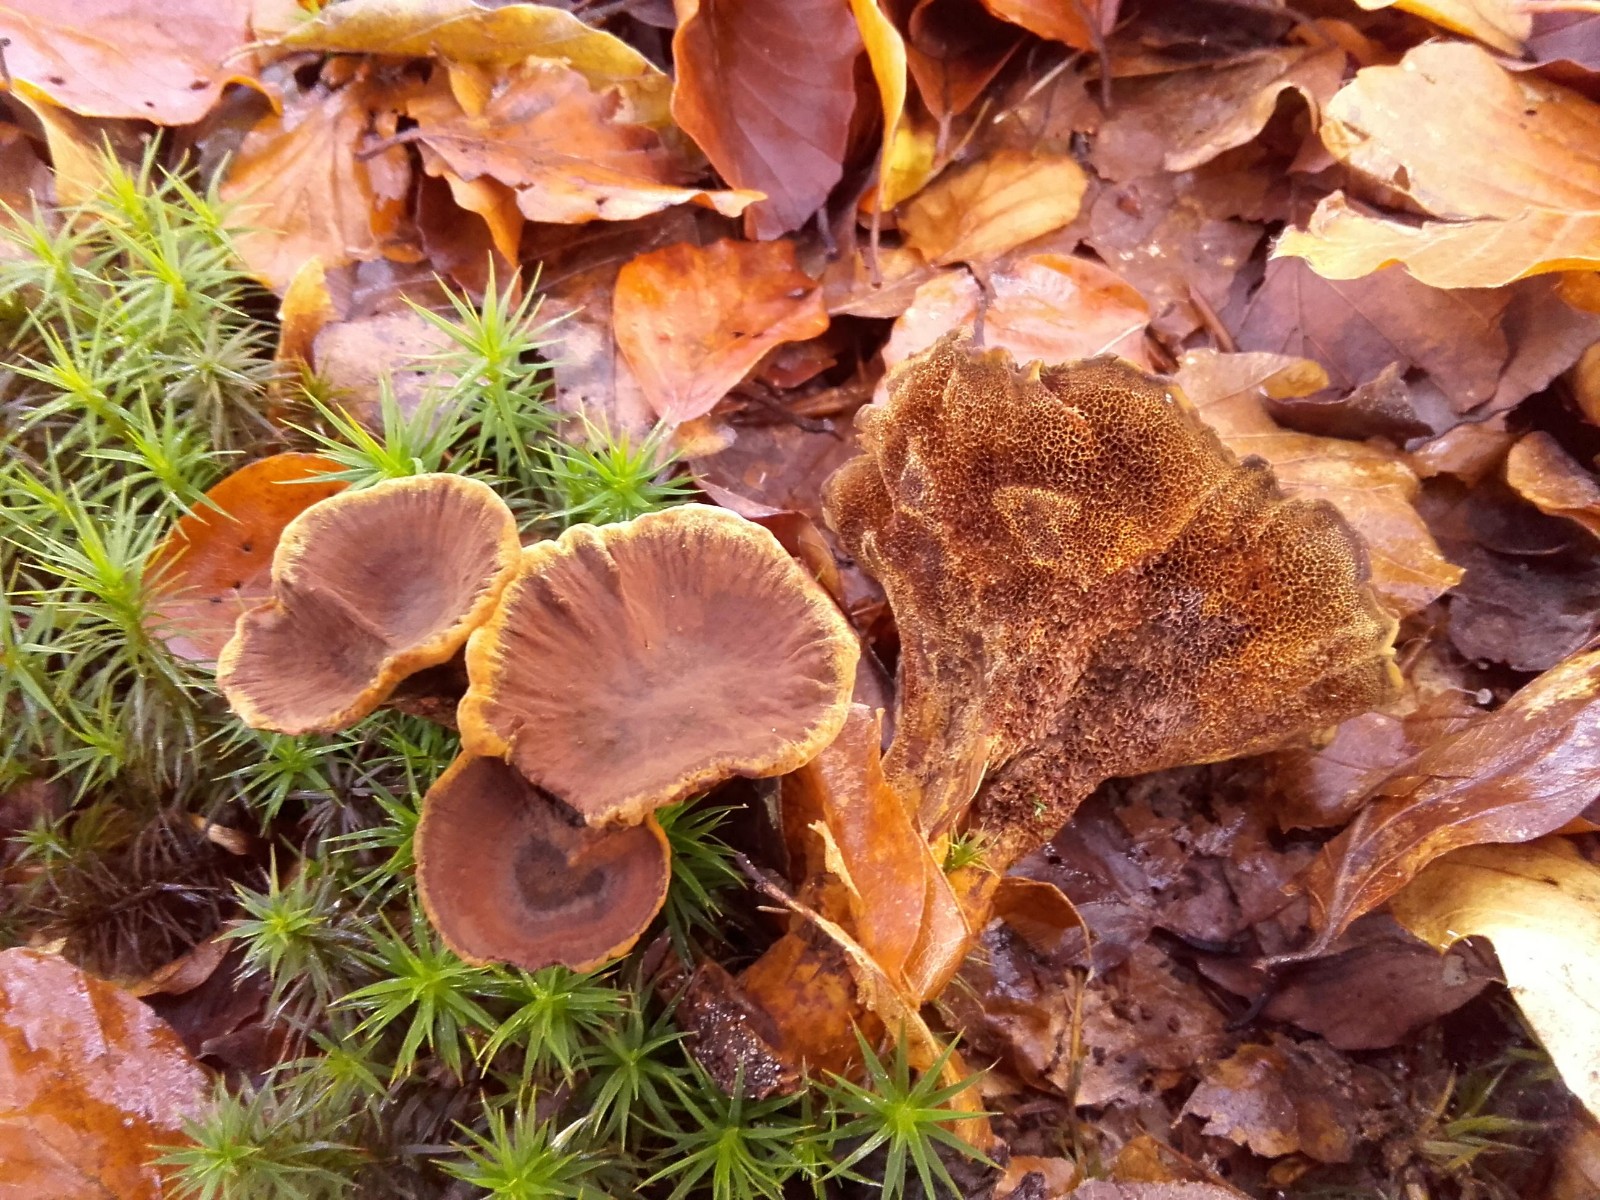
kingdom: Fungi
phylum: Basidiomycota
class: Agaricomycetes
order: Hymenochaetales
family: Hymenochaetaceae
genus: Coltricia
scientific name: Coltricia perennis
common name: almindelig sandporesvamp
